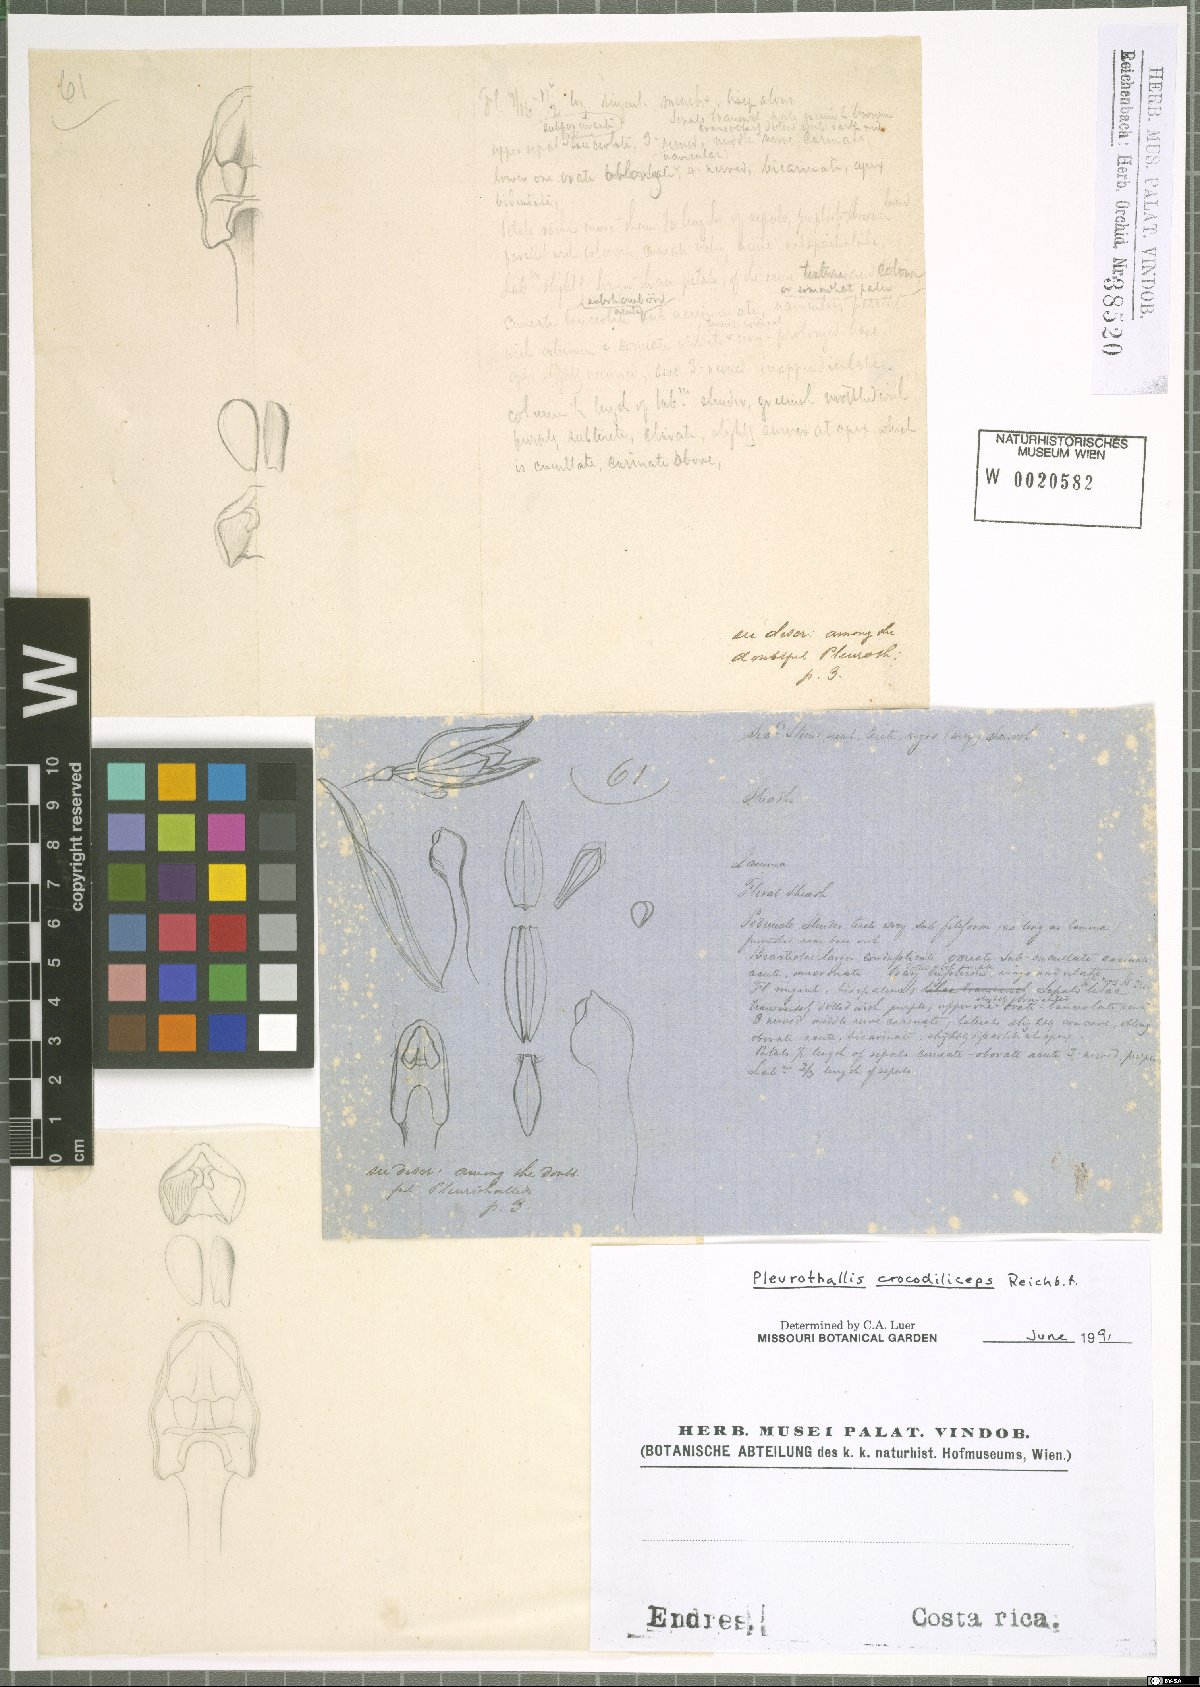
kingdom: Plantae
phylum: Tracheophyta
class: Liliopsida
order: Asparagales
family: Orchidaceae
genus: Pleurothallis
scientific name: Pleurothallis crocodiliceps
